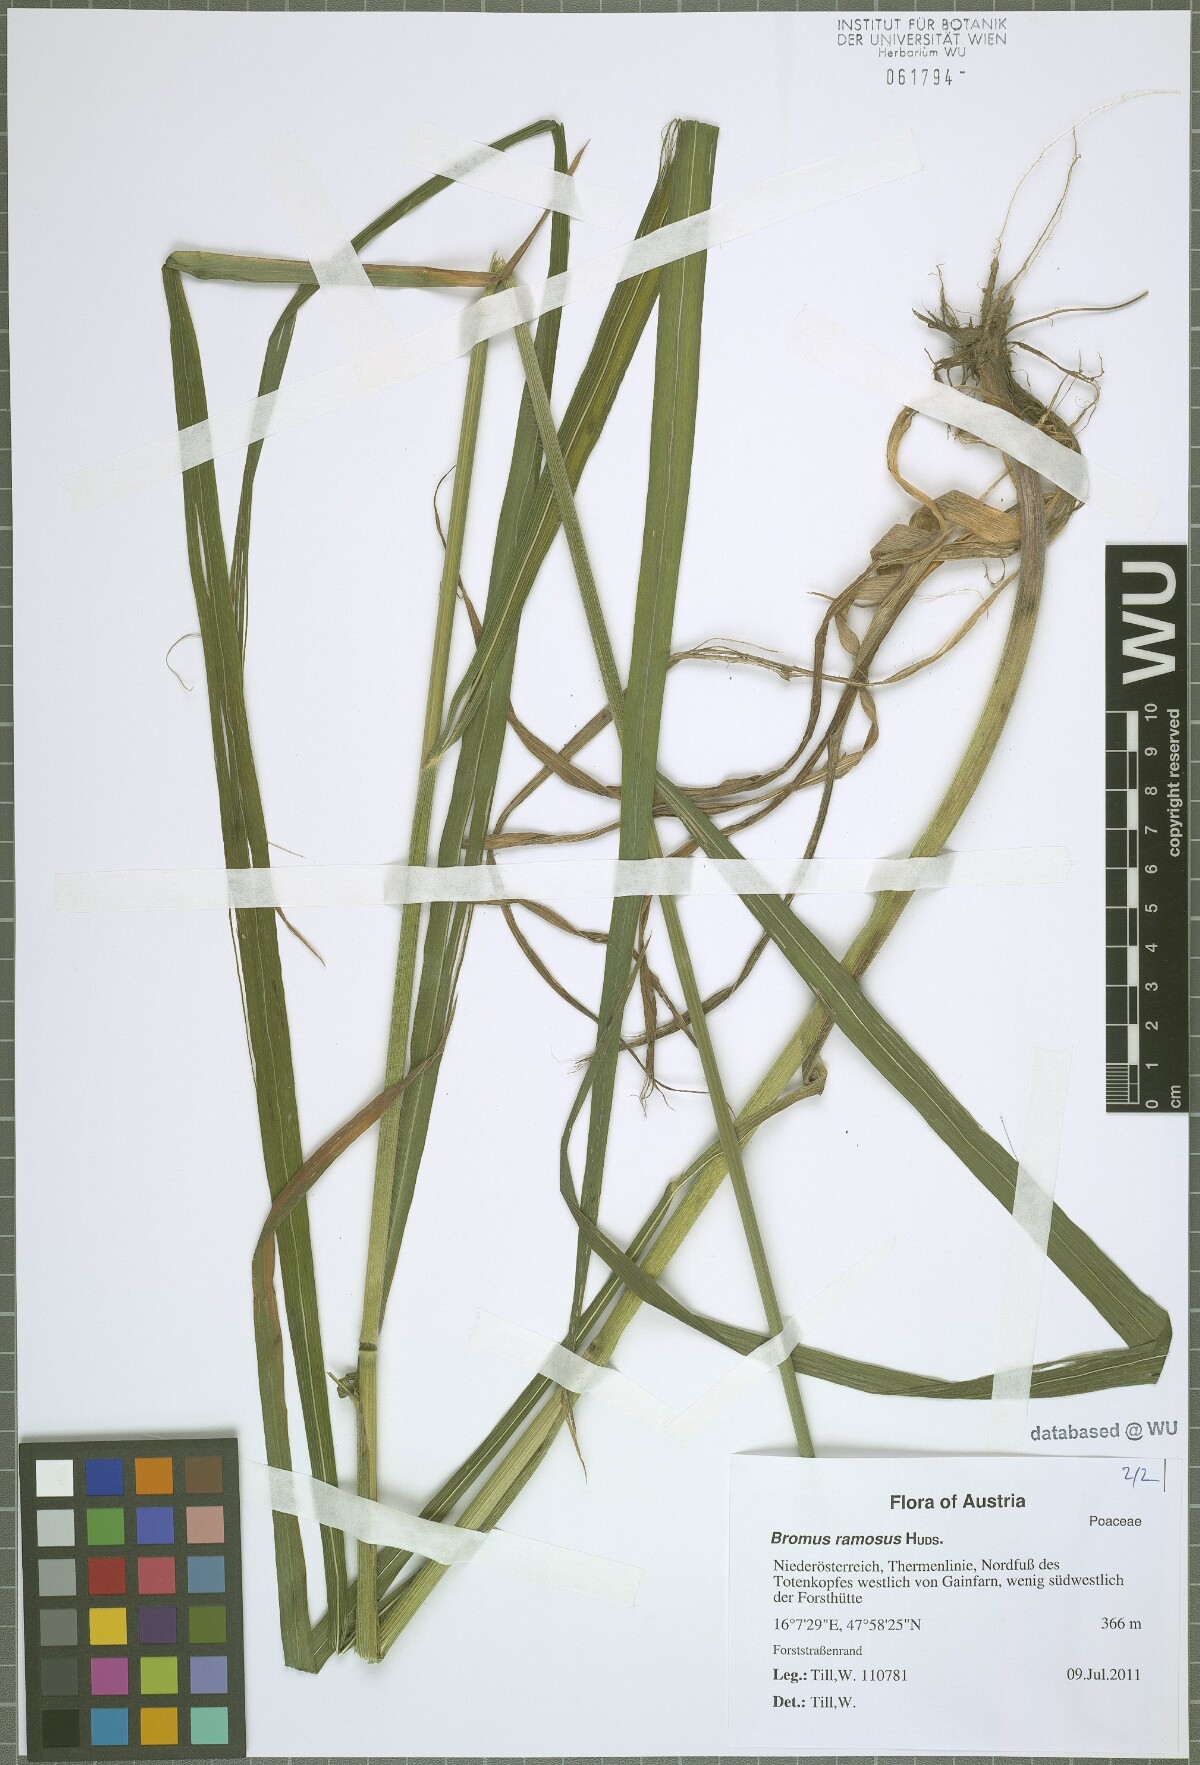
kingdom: Plantae
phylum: Tracheophyta
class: Liliopsida
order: Poales
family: Poaceae
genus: Bromus
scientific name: Bromus ramosus
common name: Hairy brome
